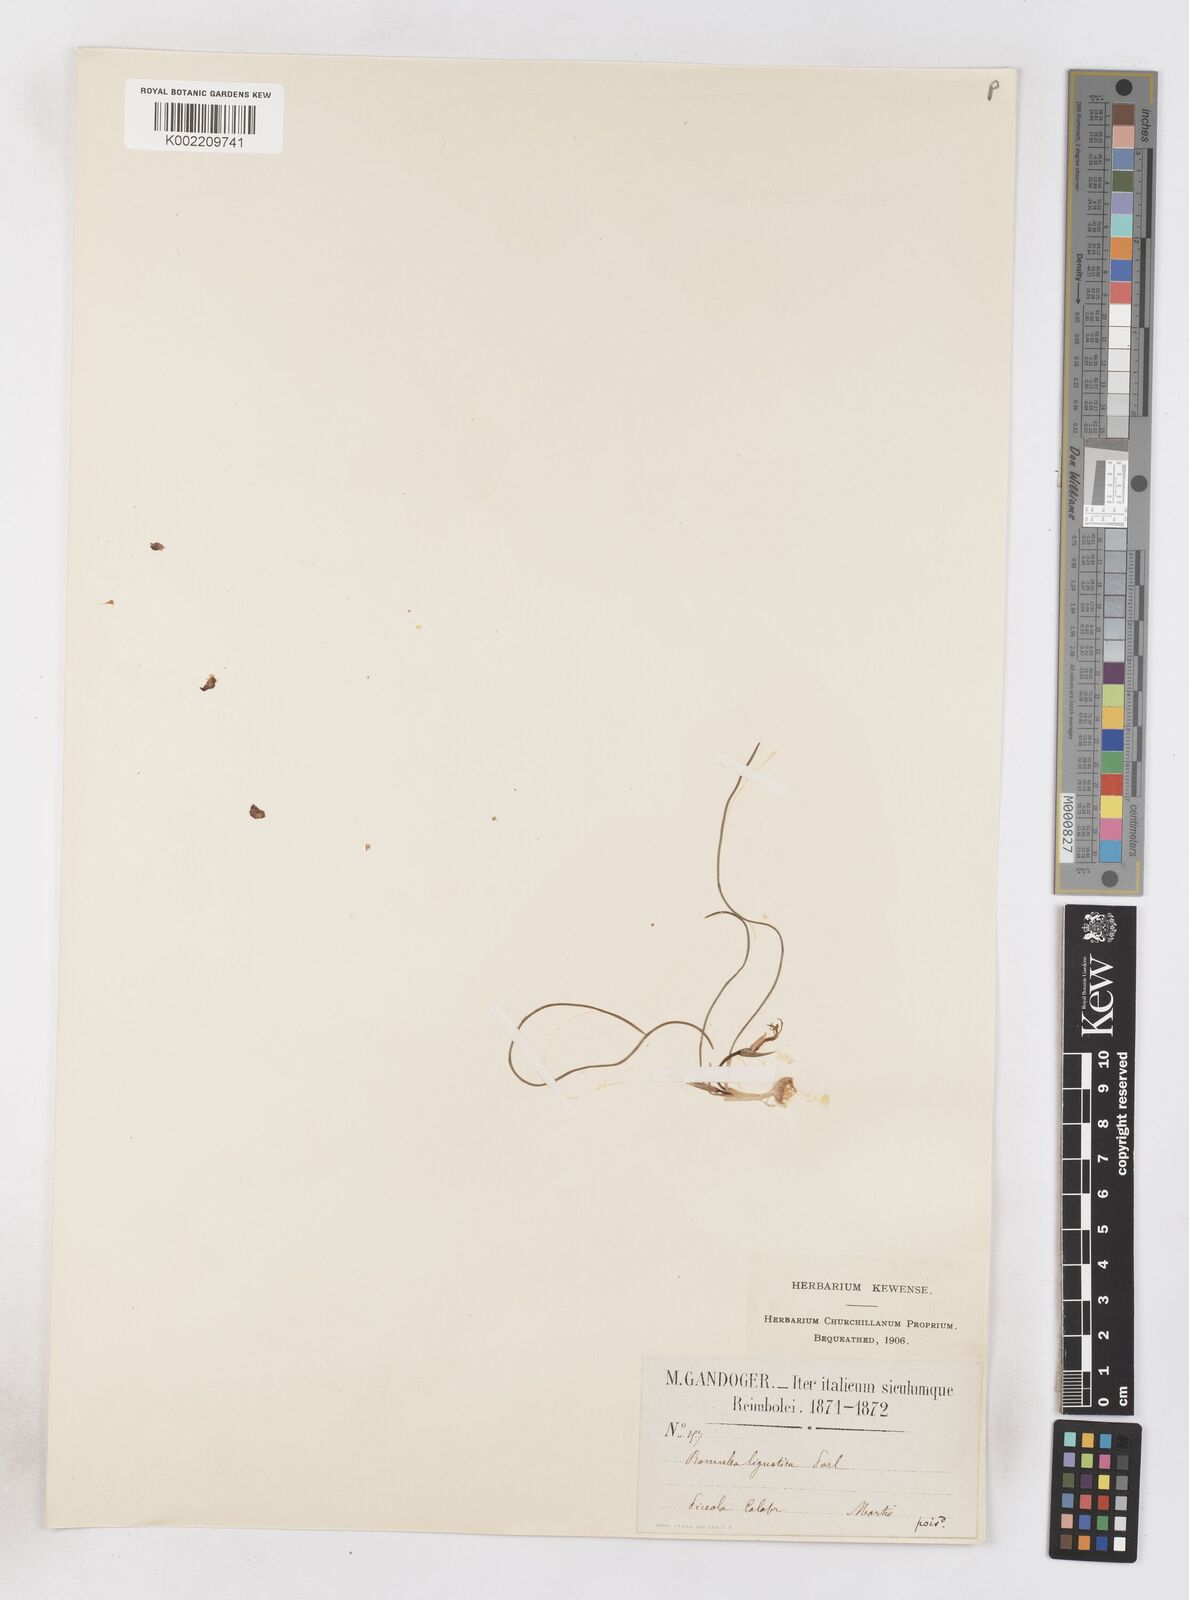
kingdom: Plantae
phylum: Tracheophyta
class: Liliopsida
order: Asparagales
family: Iridaceae
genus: Romulea
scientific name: Romulea columnae
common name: Sand-crocus
